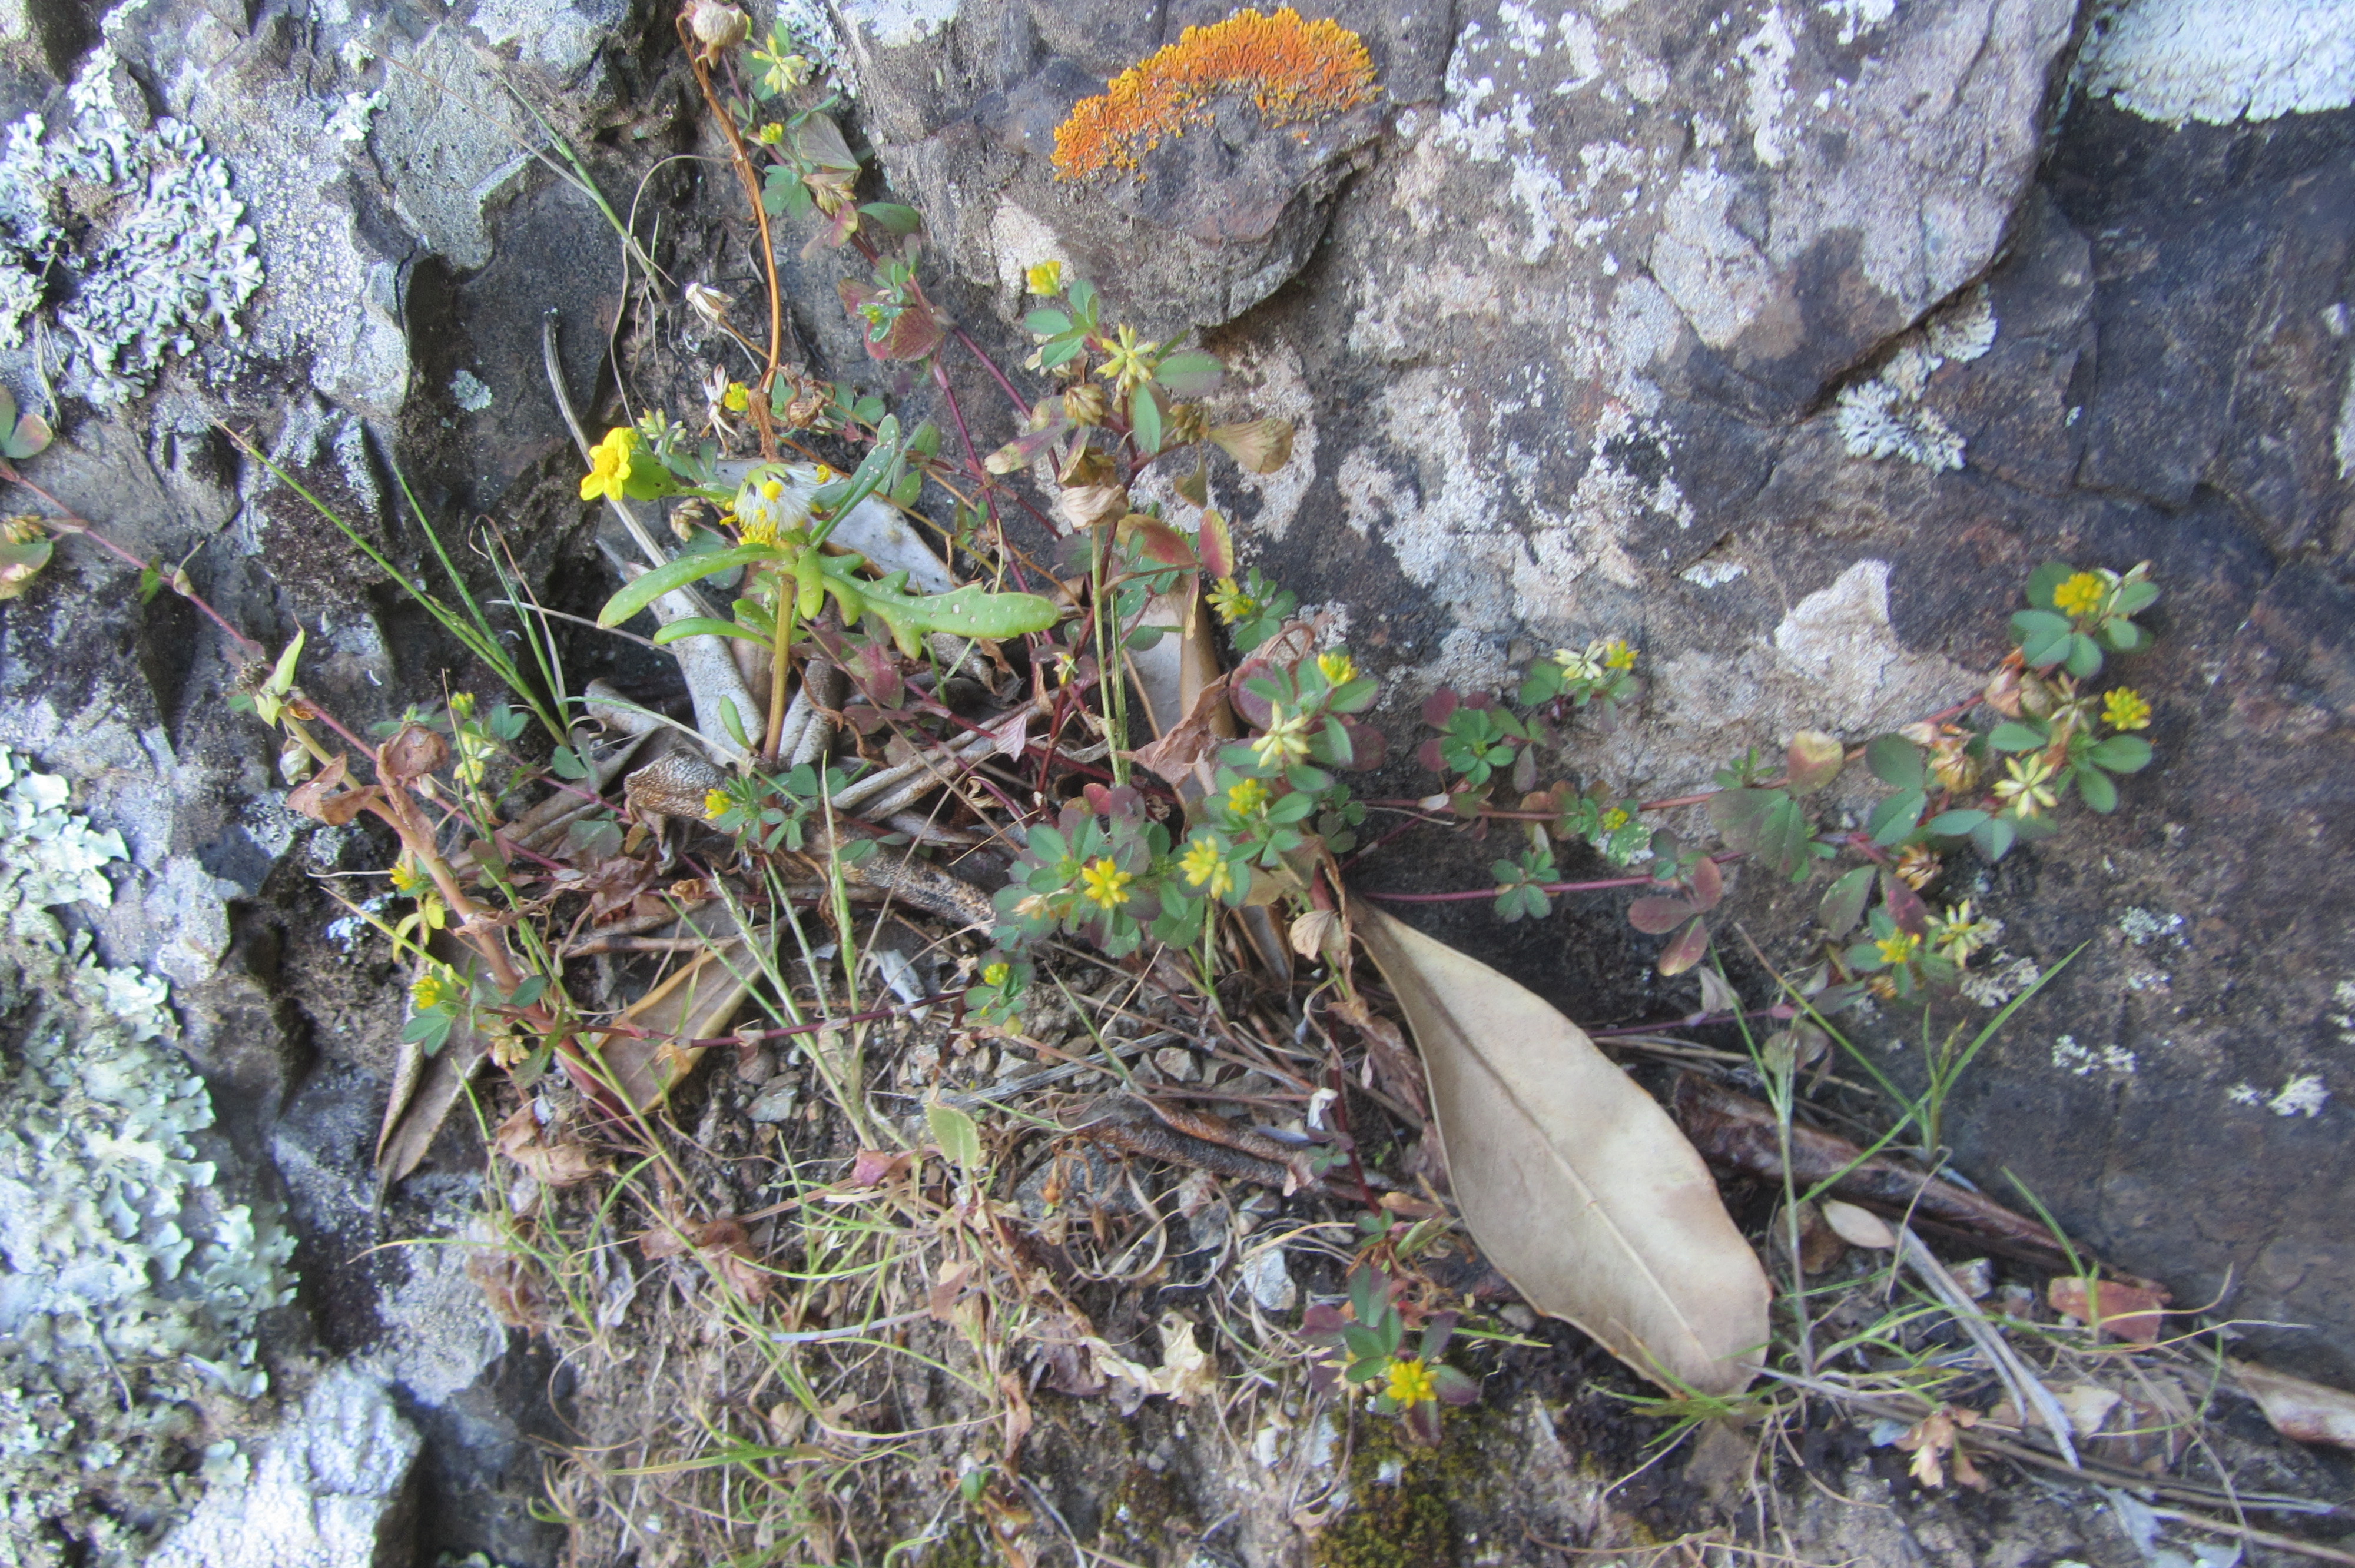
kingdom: Plantae
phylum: Tracheophyta
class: Magnoliopsida
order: Fabales
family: Fabaceae
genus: Trifolium
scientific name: Trifolium dubium
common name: Suckling clover
